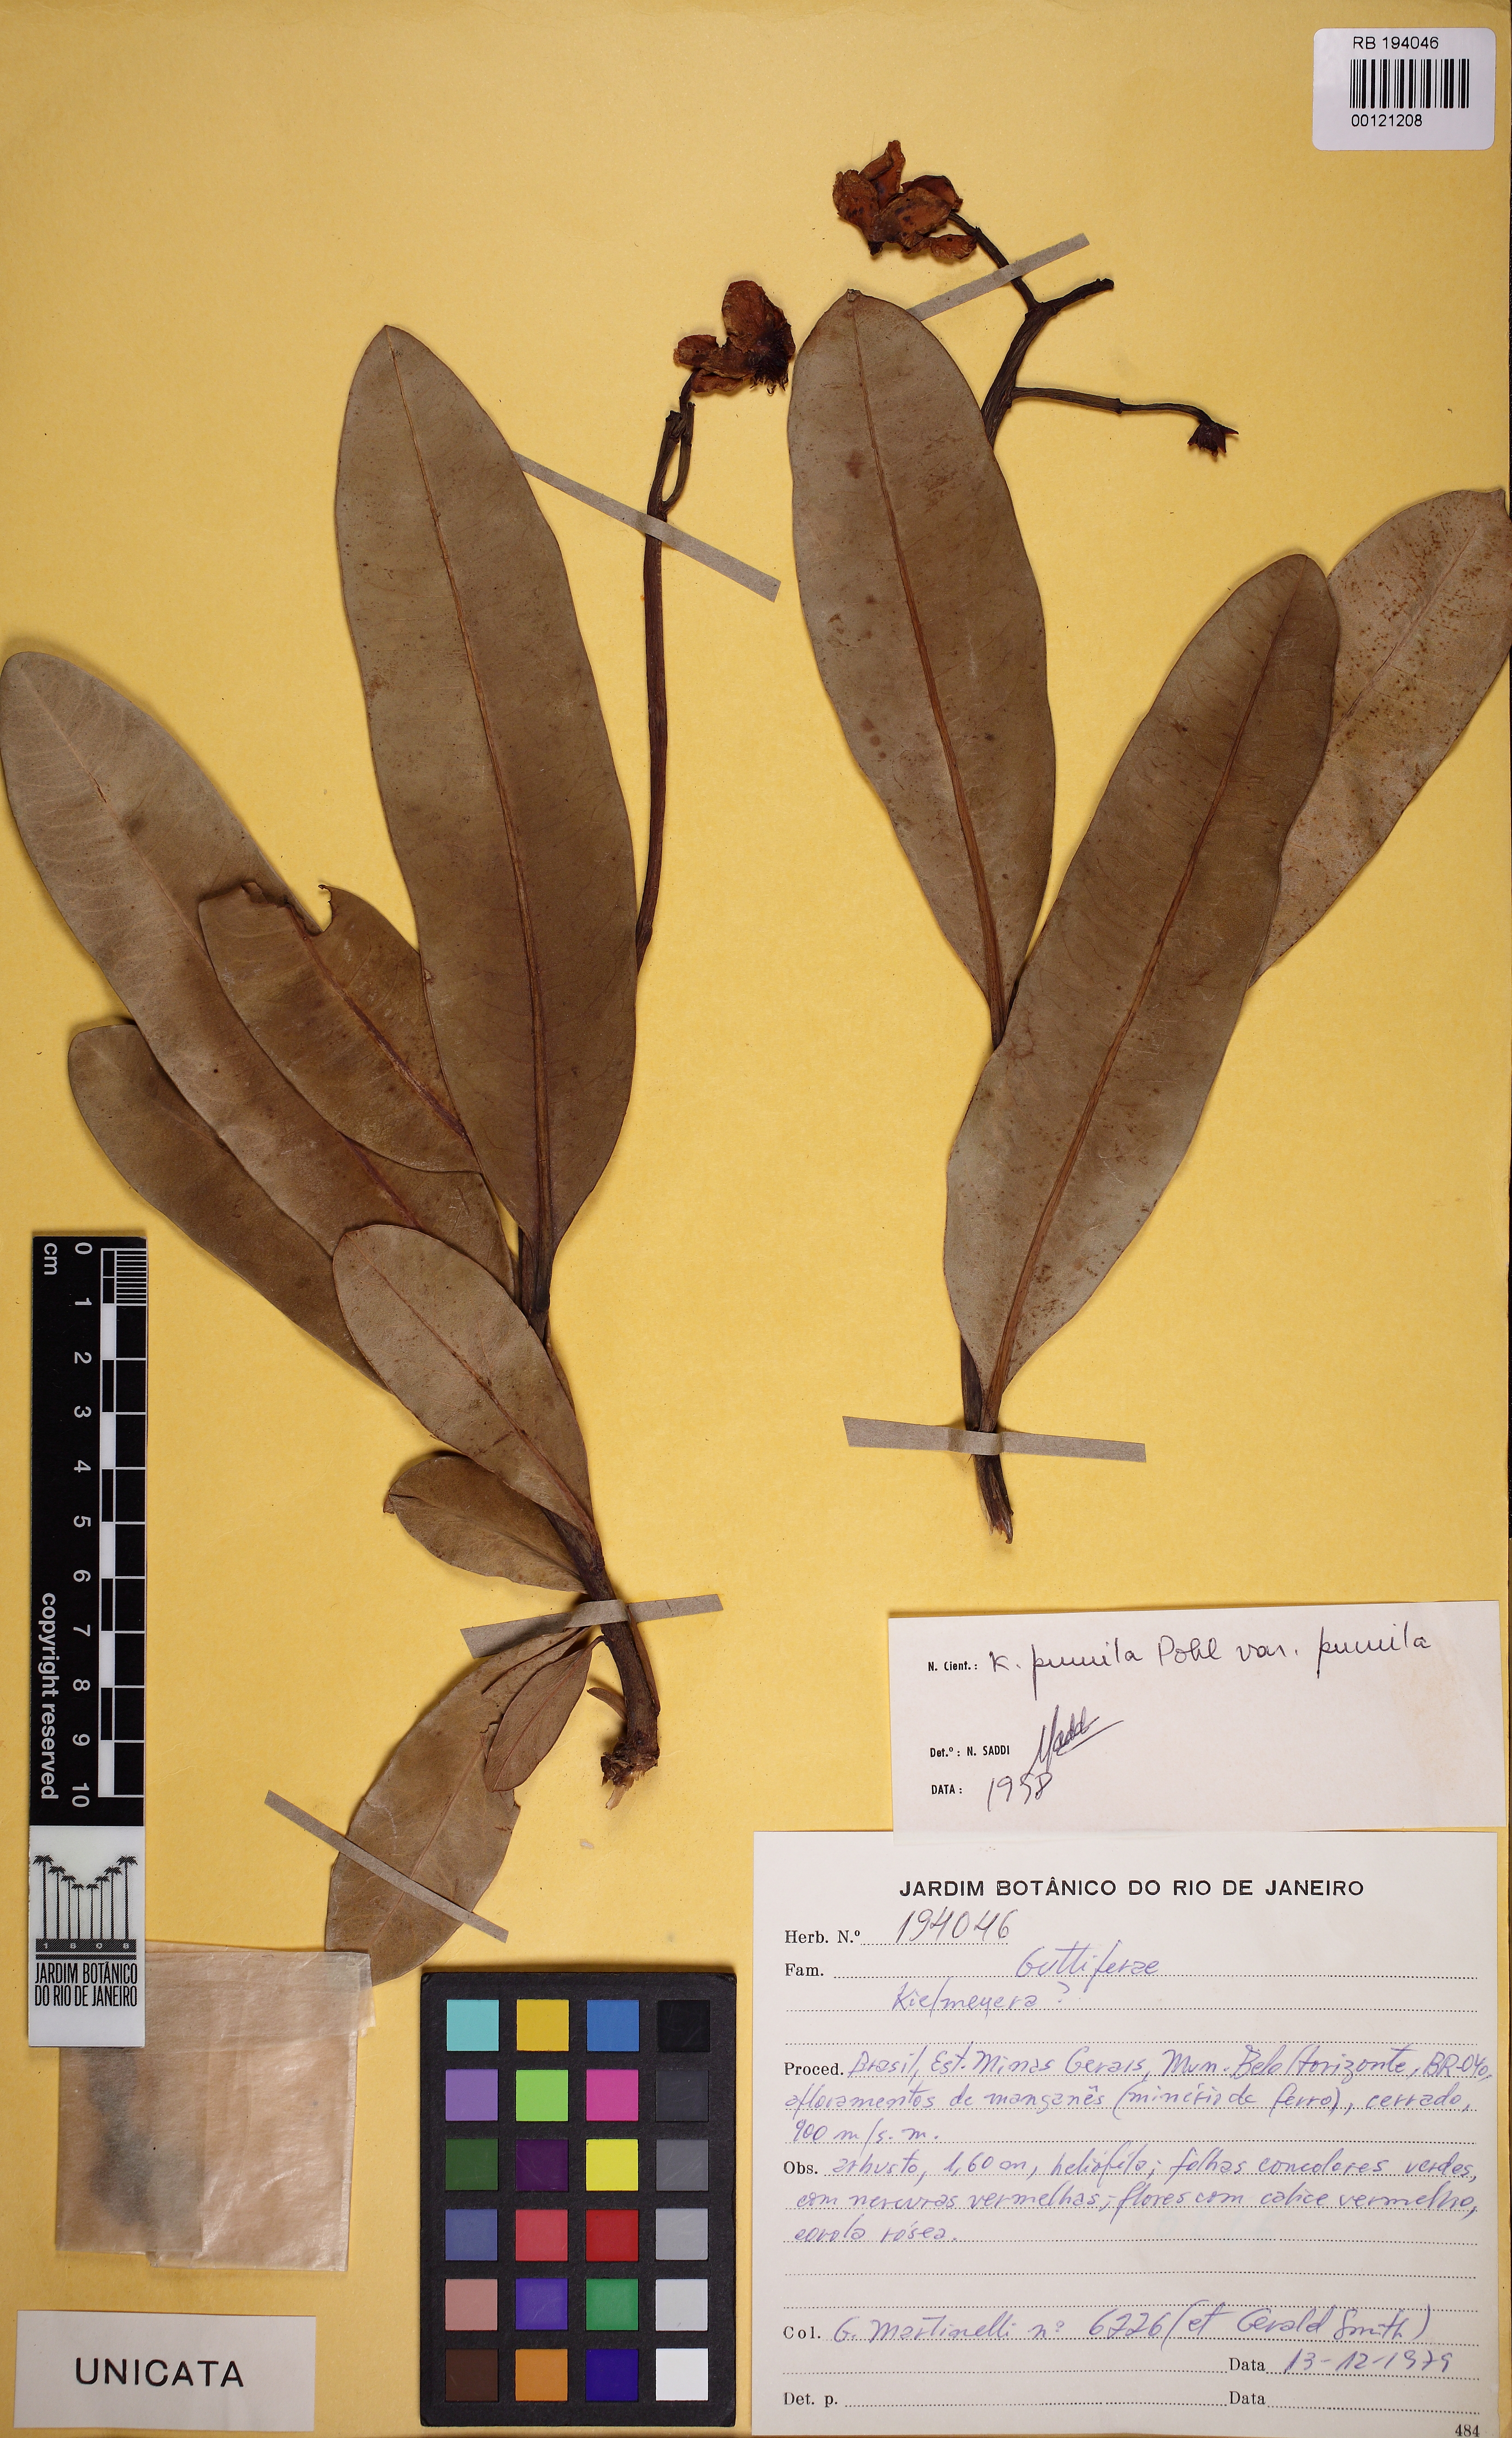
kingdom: Plantae
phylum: Tracheophyta
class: Magnoliopsida
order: Malpighiales
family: Calophyllaceae
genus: Kielmeyera
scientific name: Kielmeyera pumila
